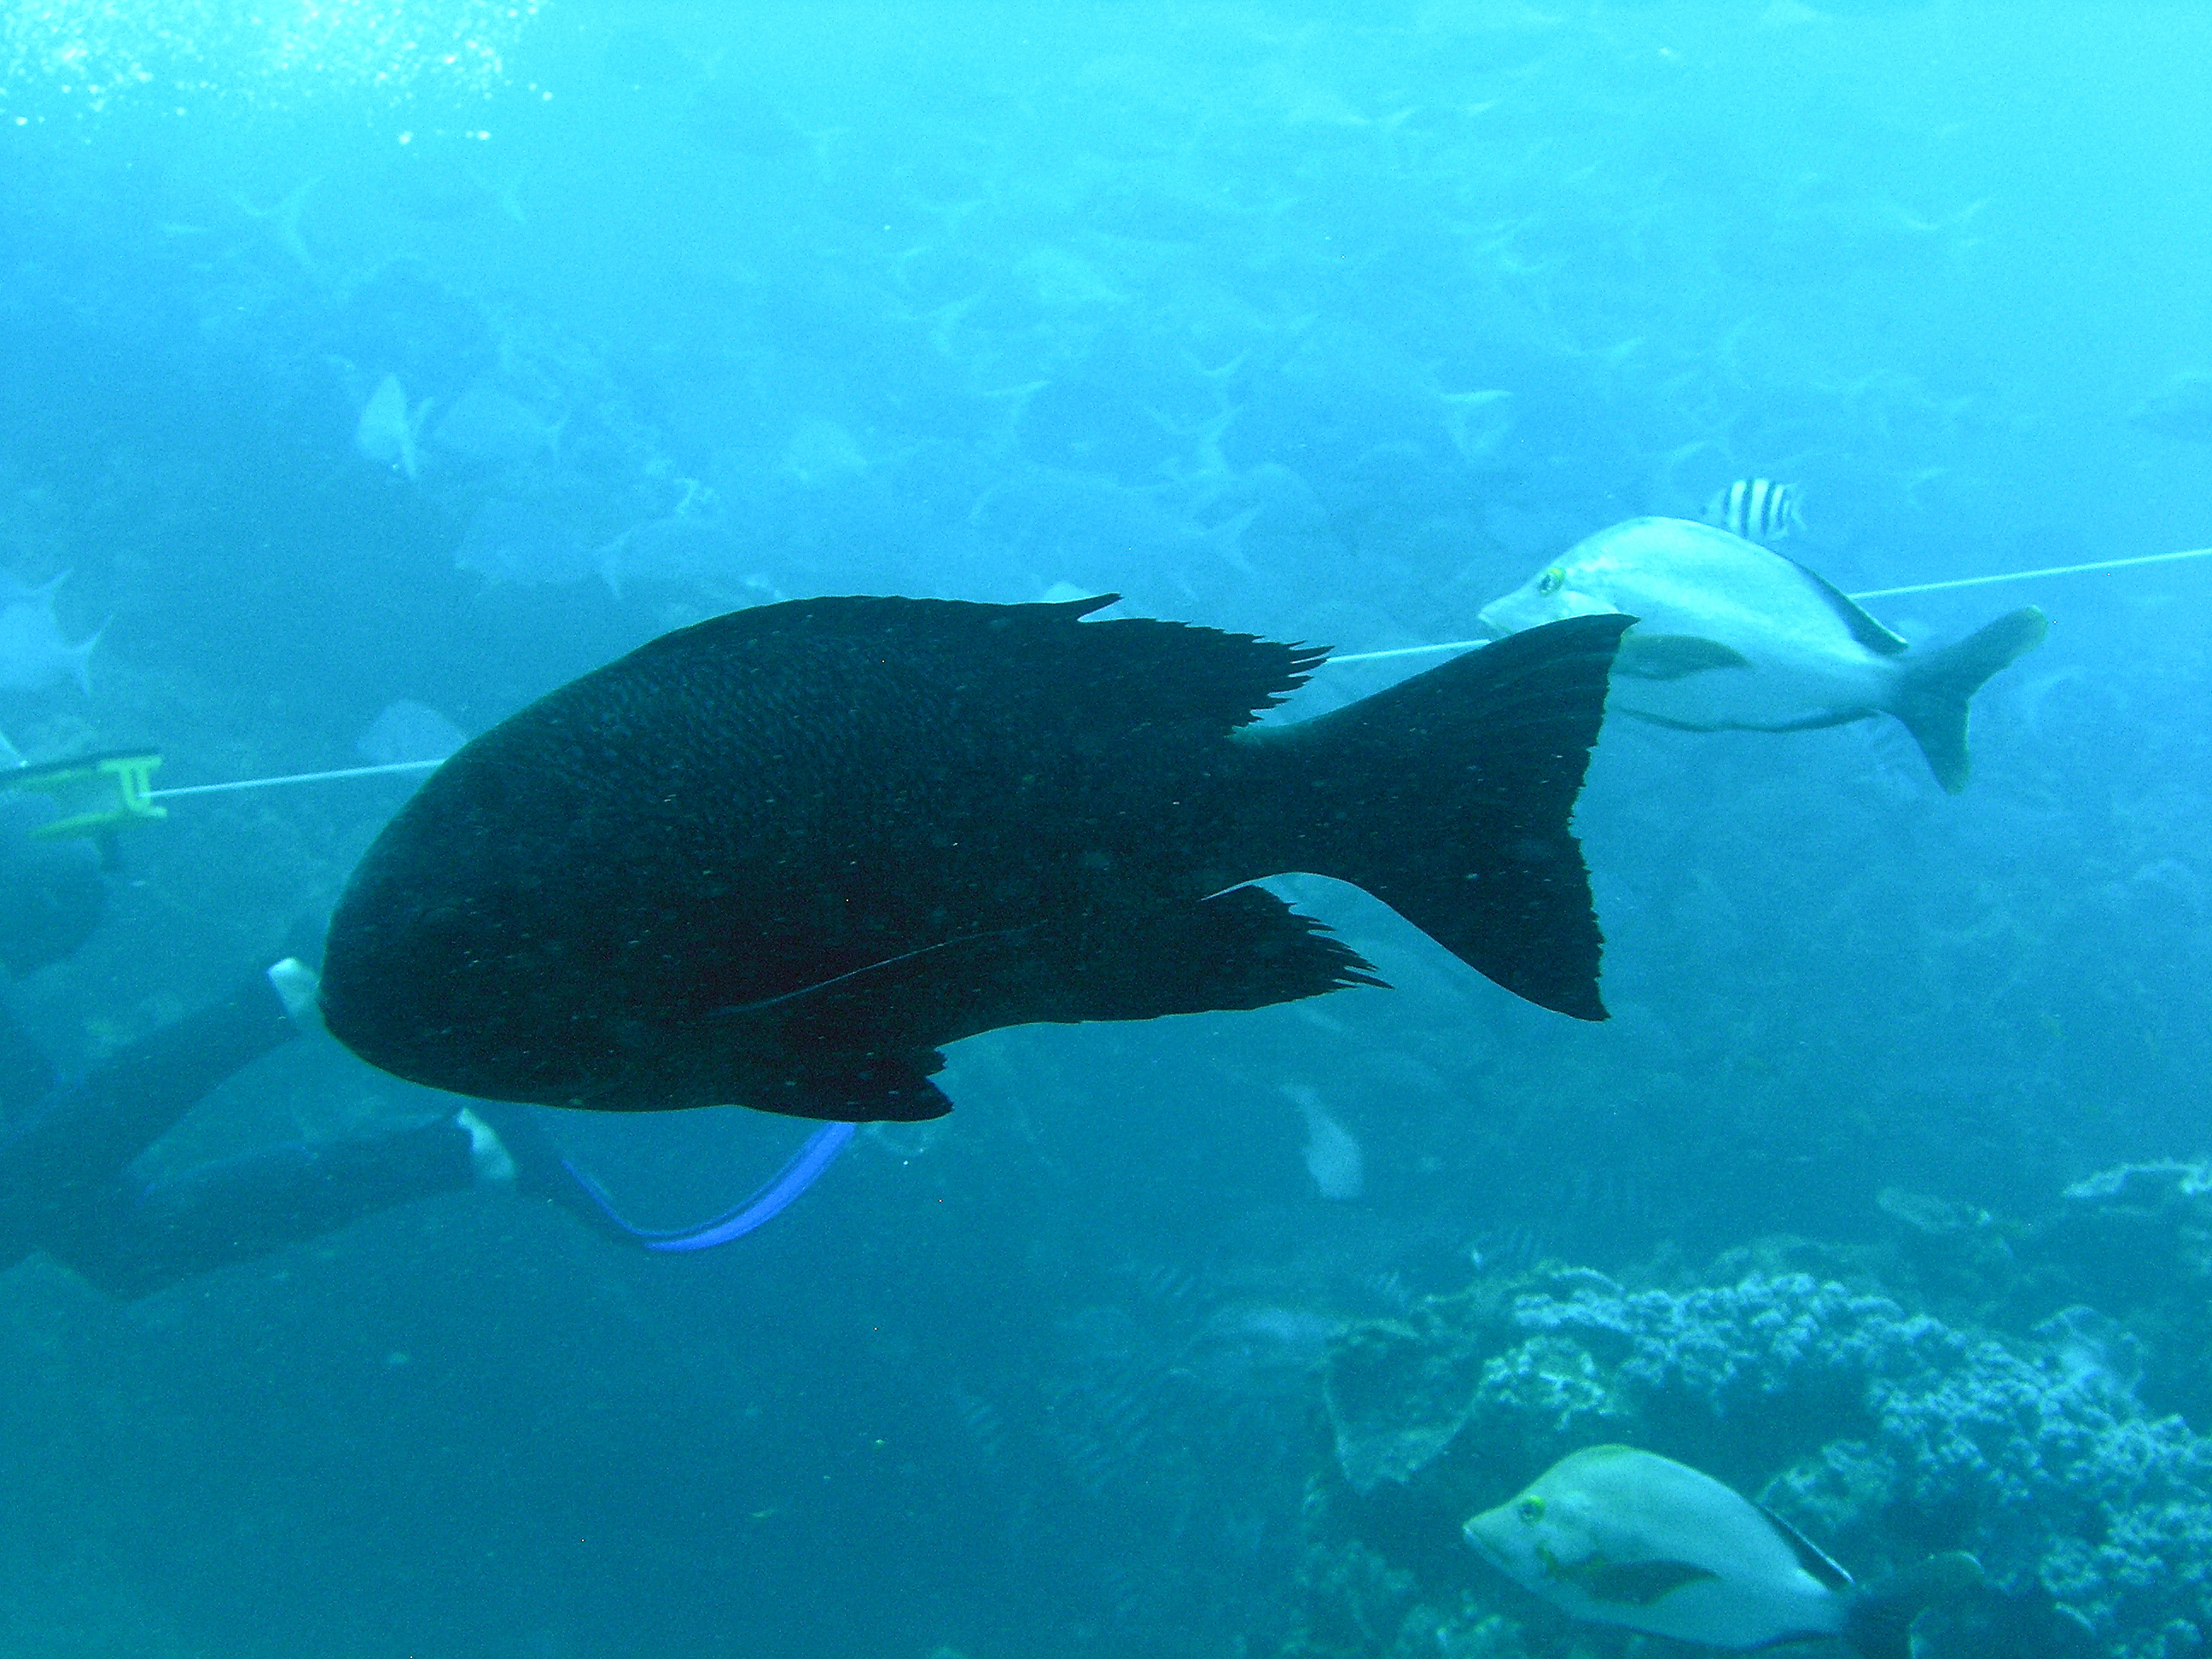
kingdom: Animalia
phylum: Chordata
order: Perciformes
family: Lutjanidae
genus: Macolor
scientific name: Macolor niger
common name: Black snapper
